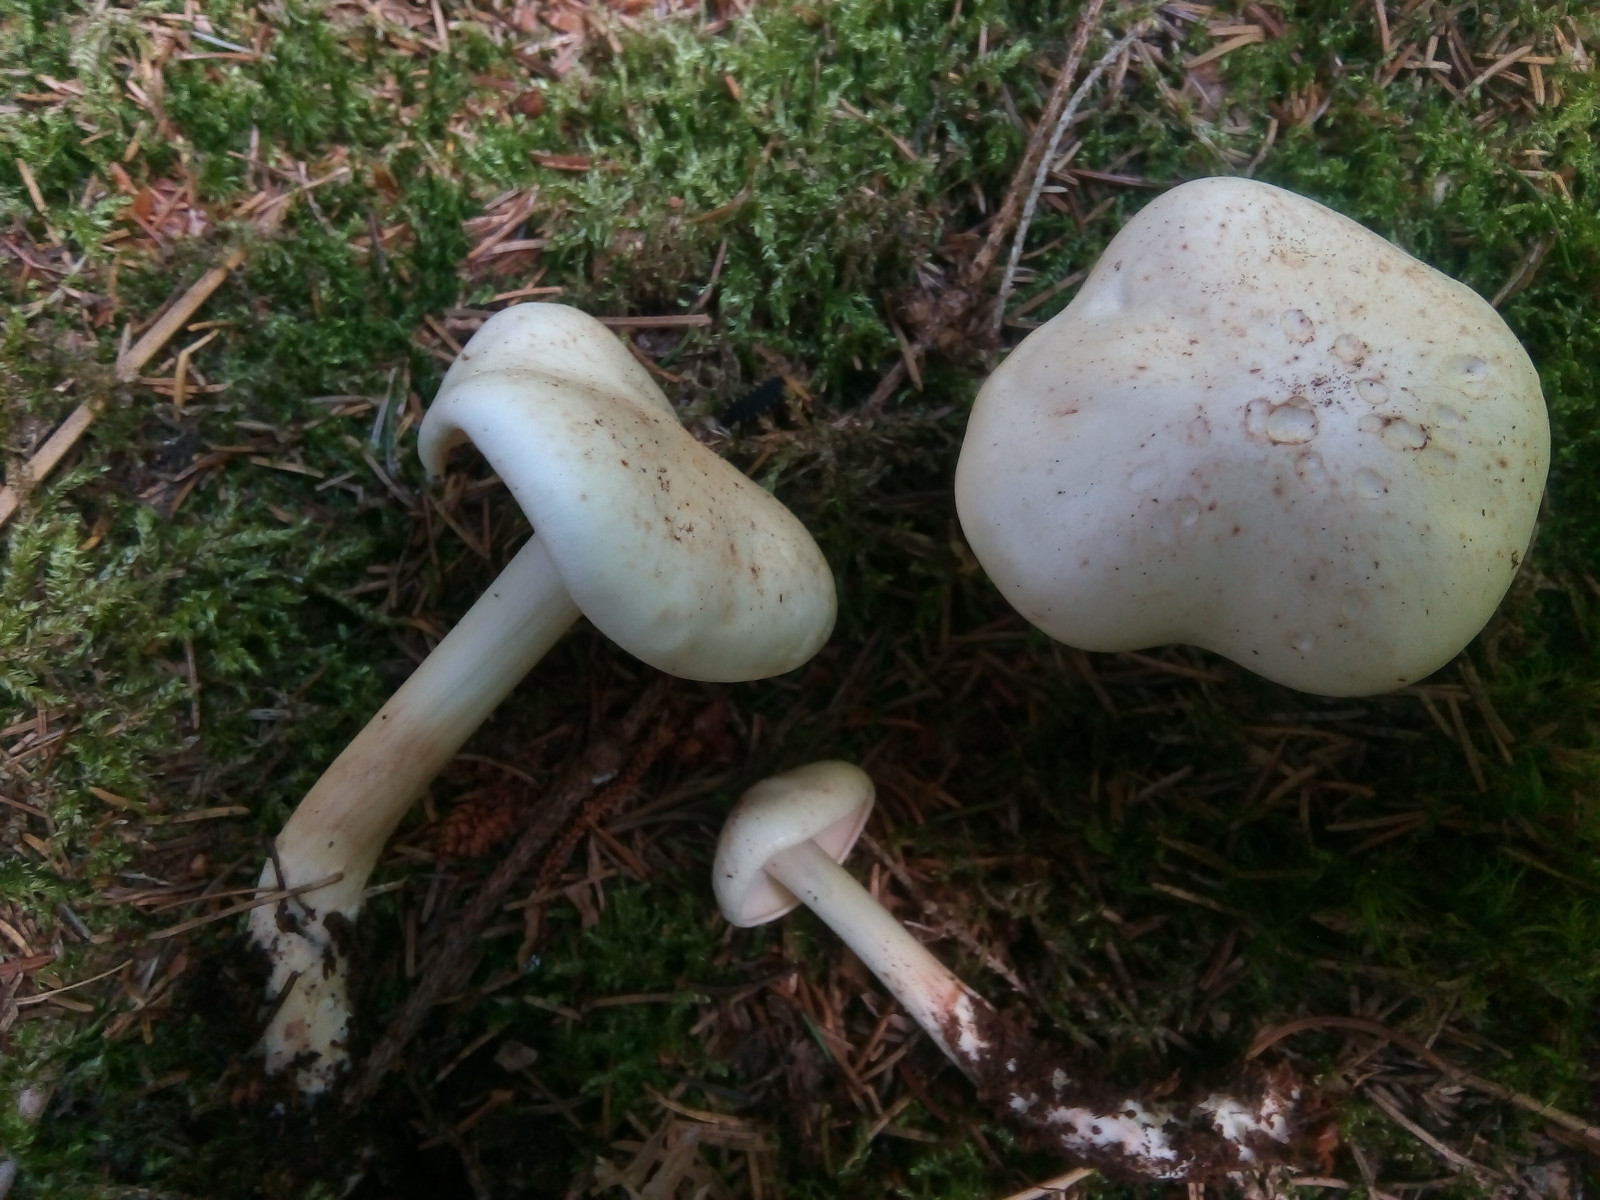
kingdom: Fungi
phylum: Basidiomycota
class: Agaricomycetes
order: Agaricales
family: Omphalotaceae
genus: Rhodocollybia
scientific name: Rhodocollybia maculata
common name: plettet fladhat
